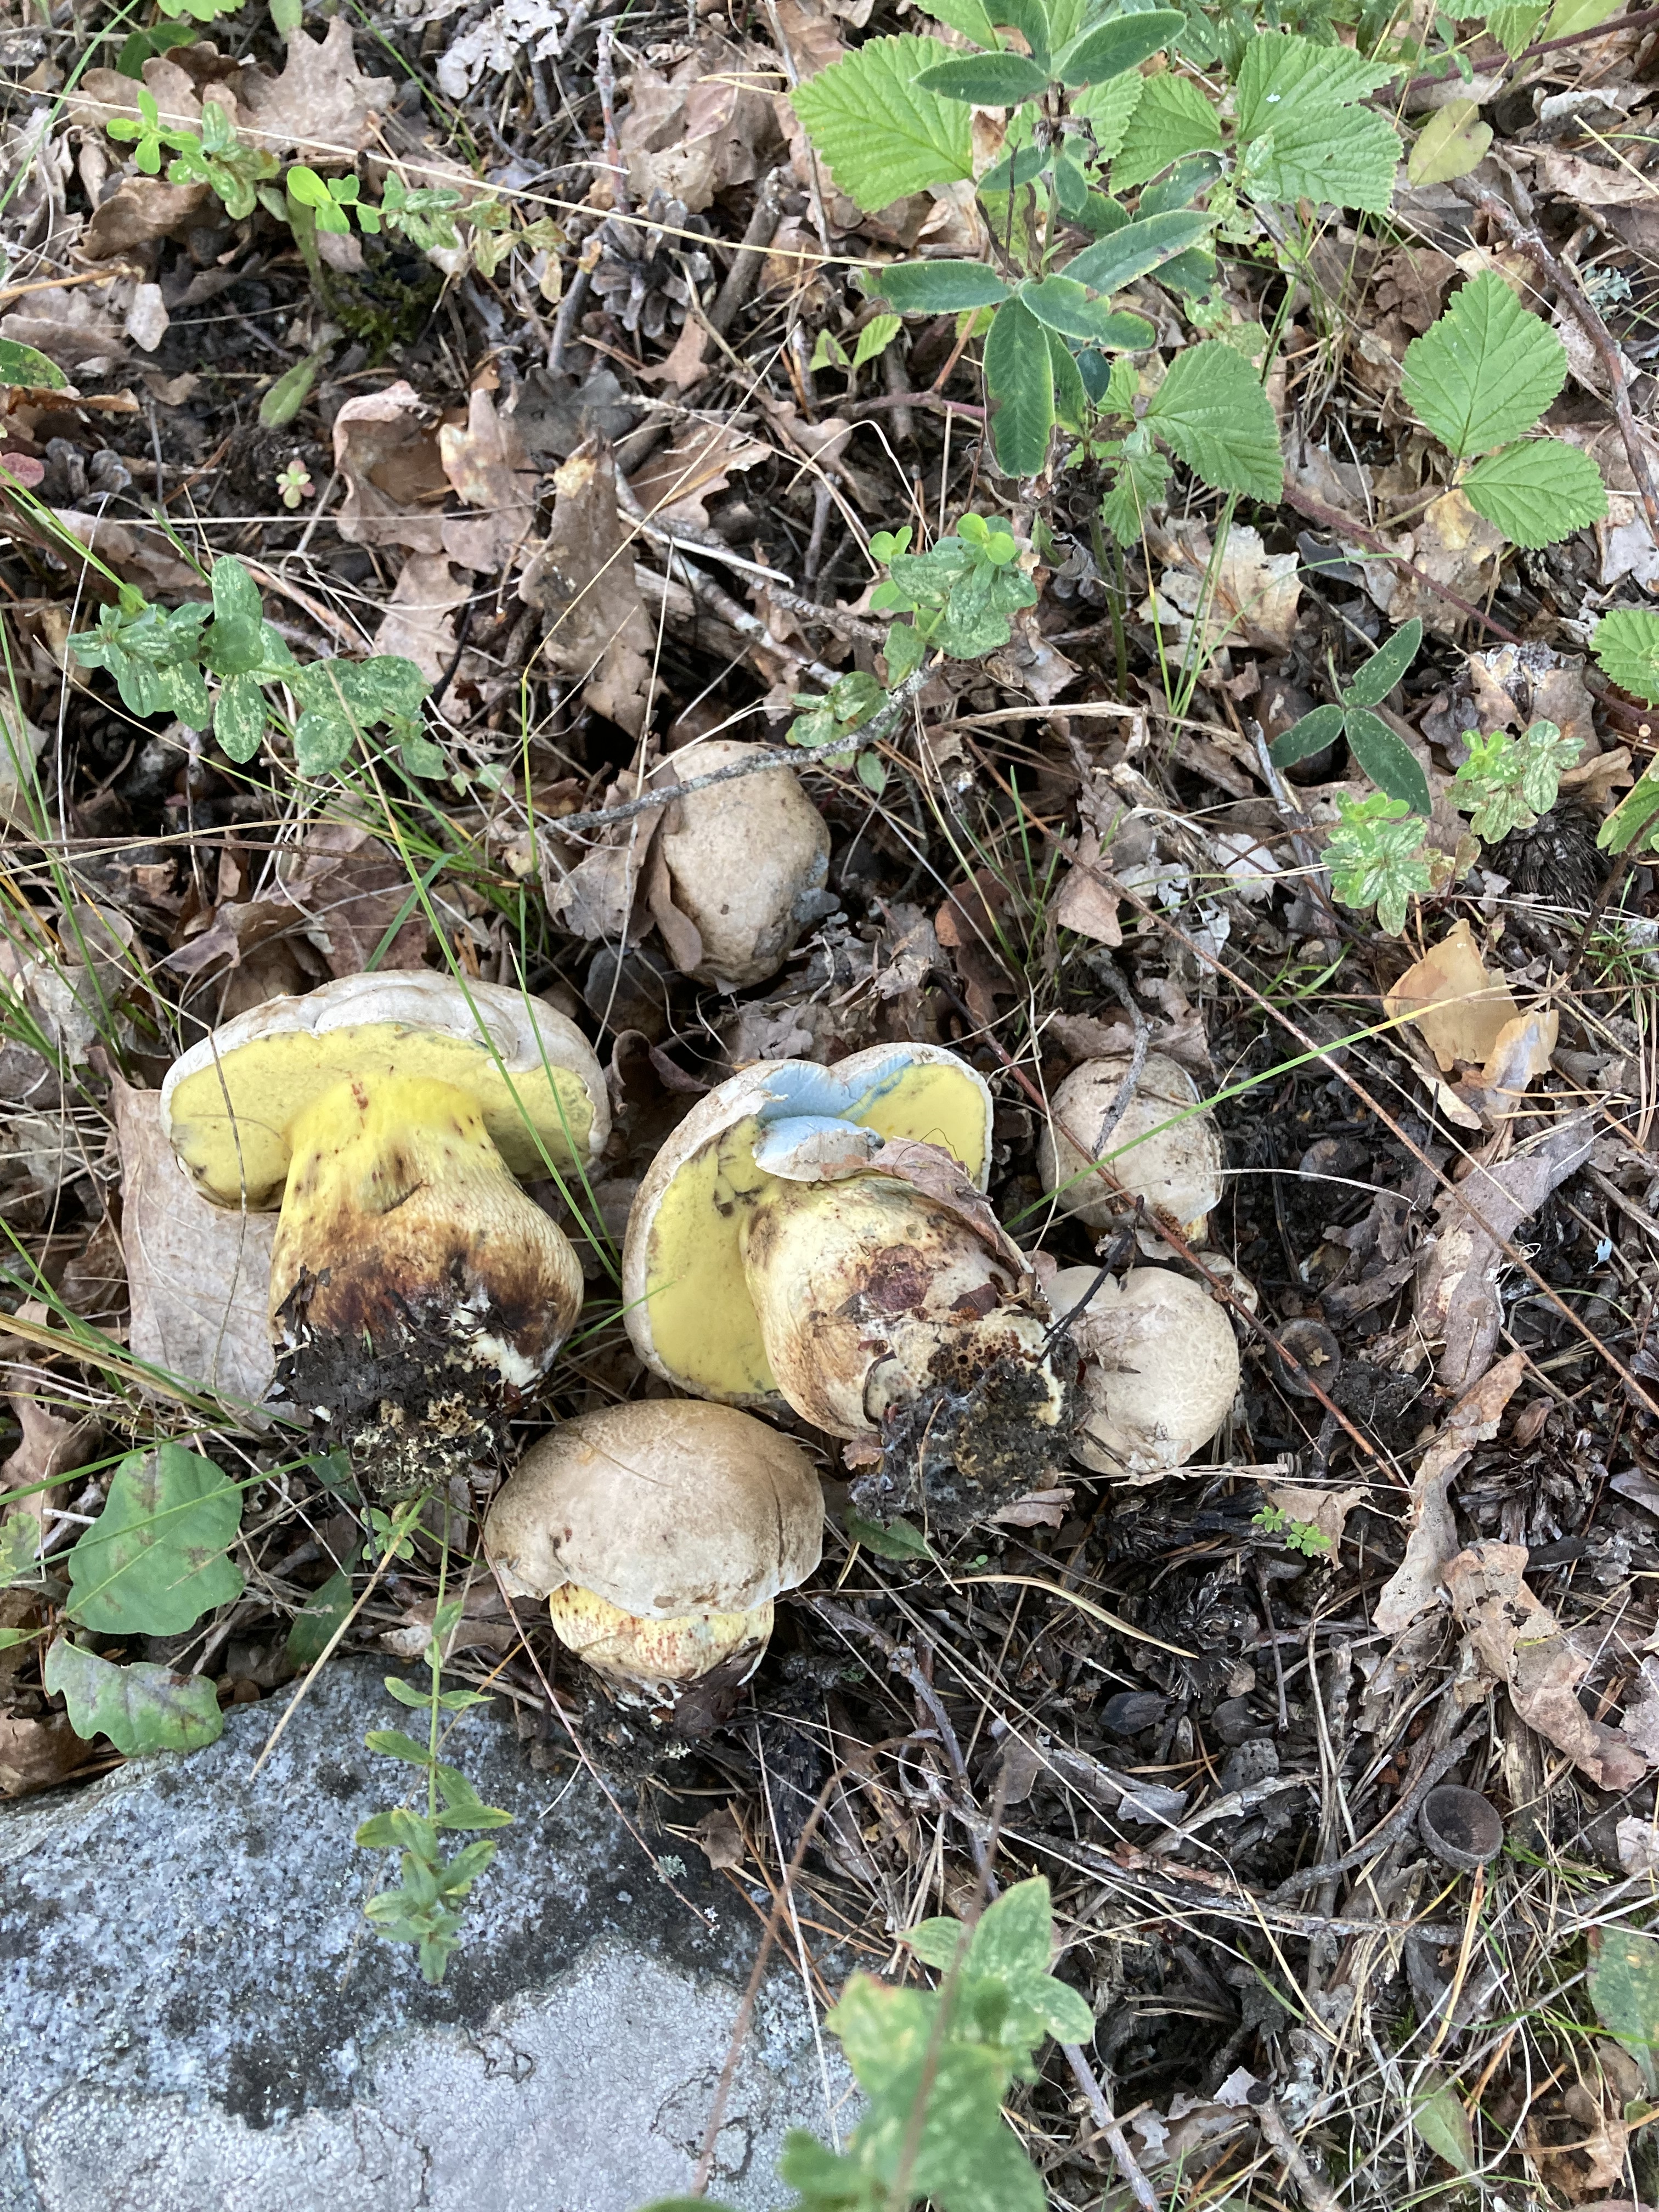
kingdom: Fungi
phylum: Basidiomycota
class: Agaricomycetes
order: Boletales
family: Boletaceae
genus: Caloboletus
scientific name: Caloboletus radicans
